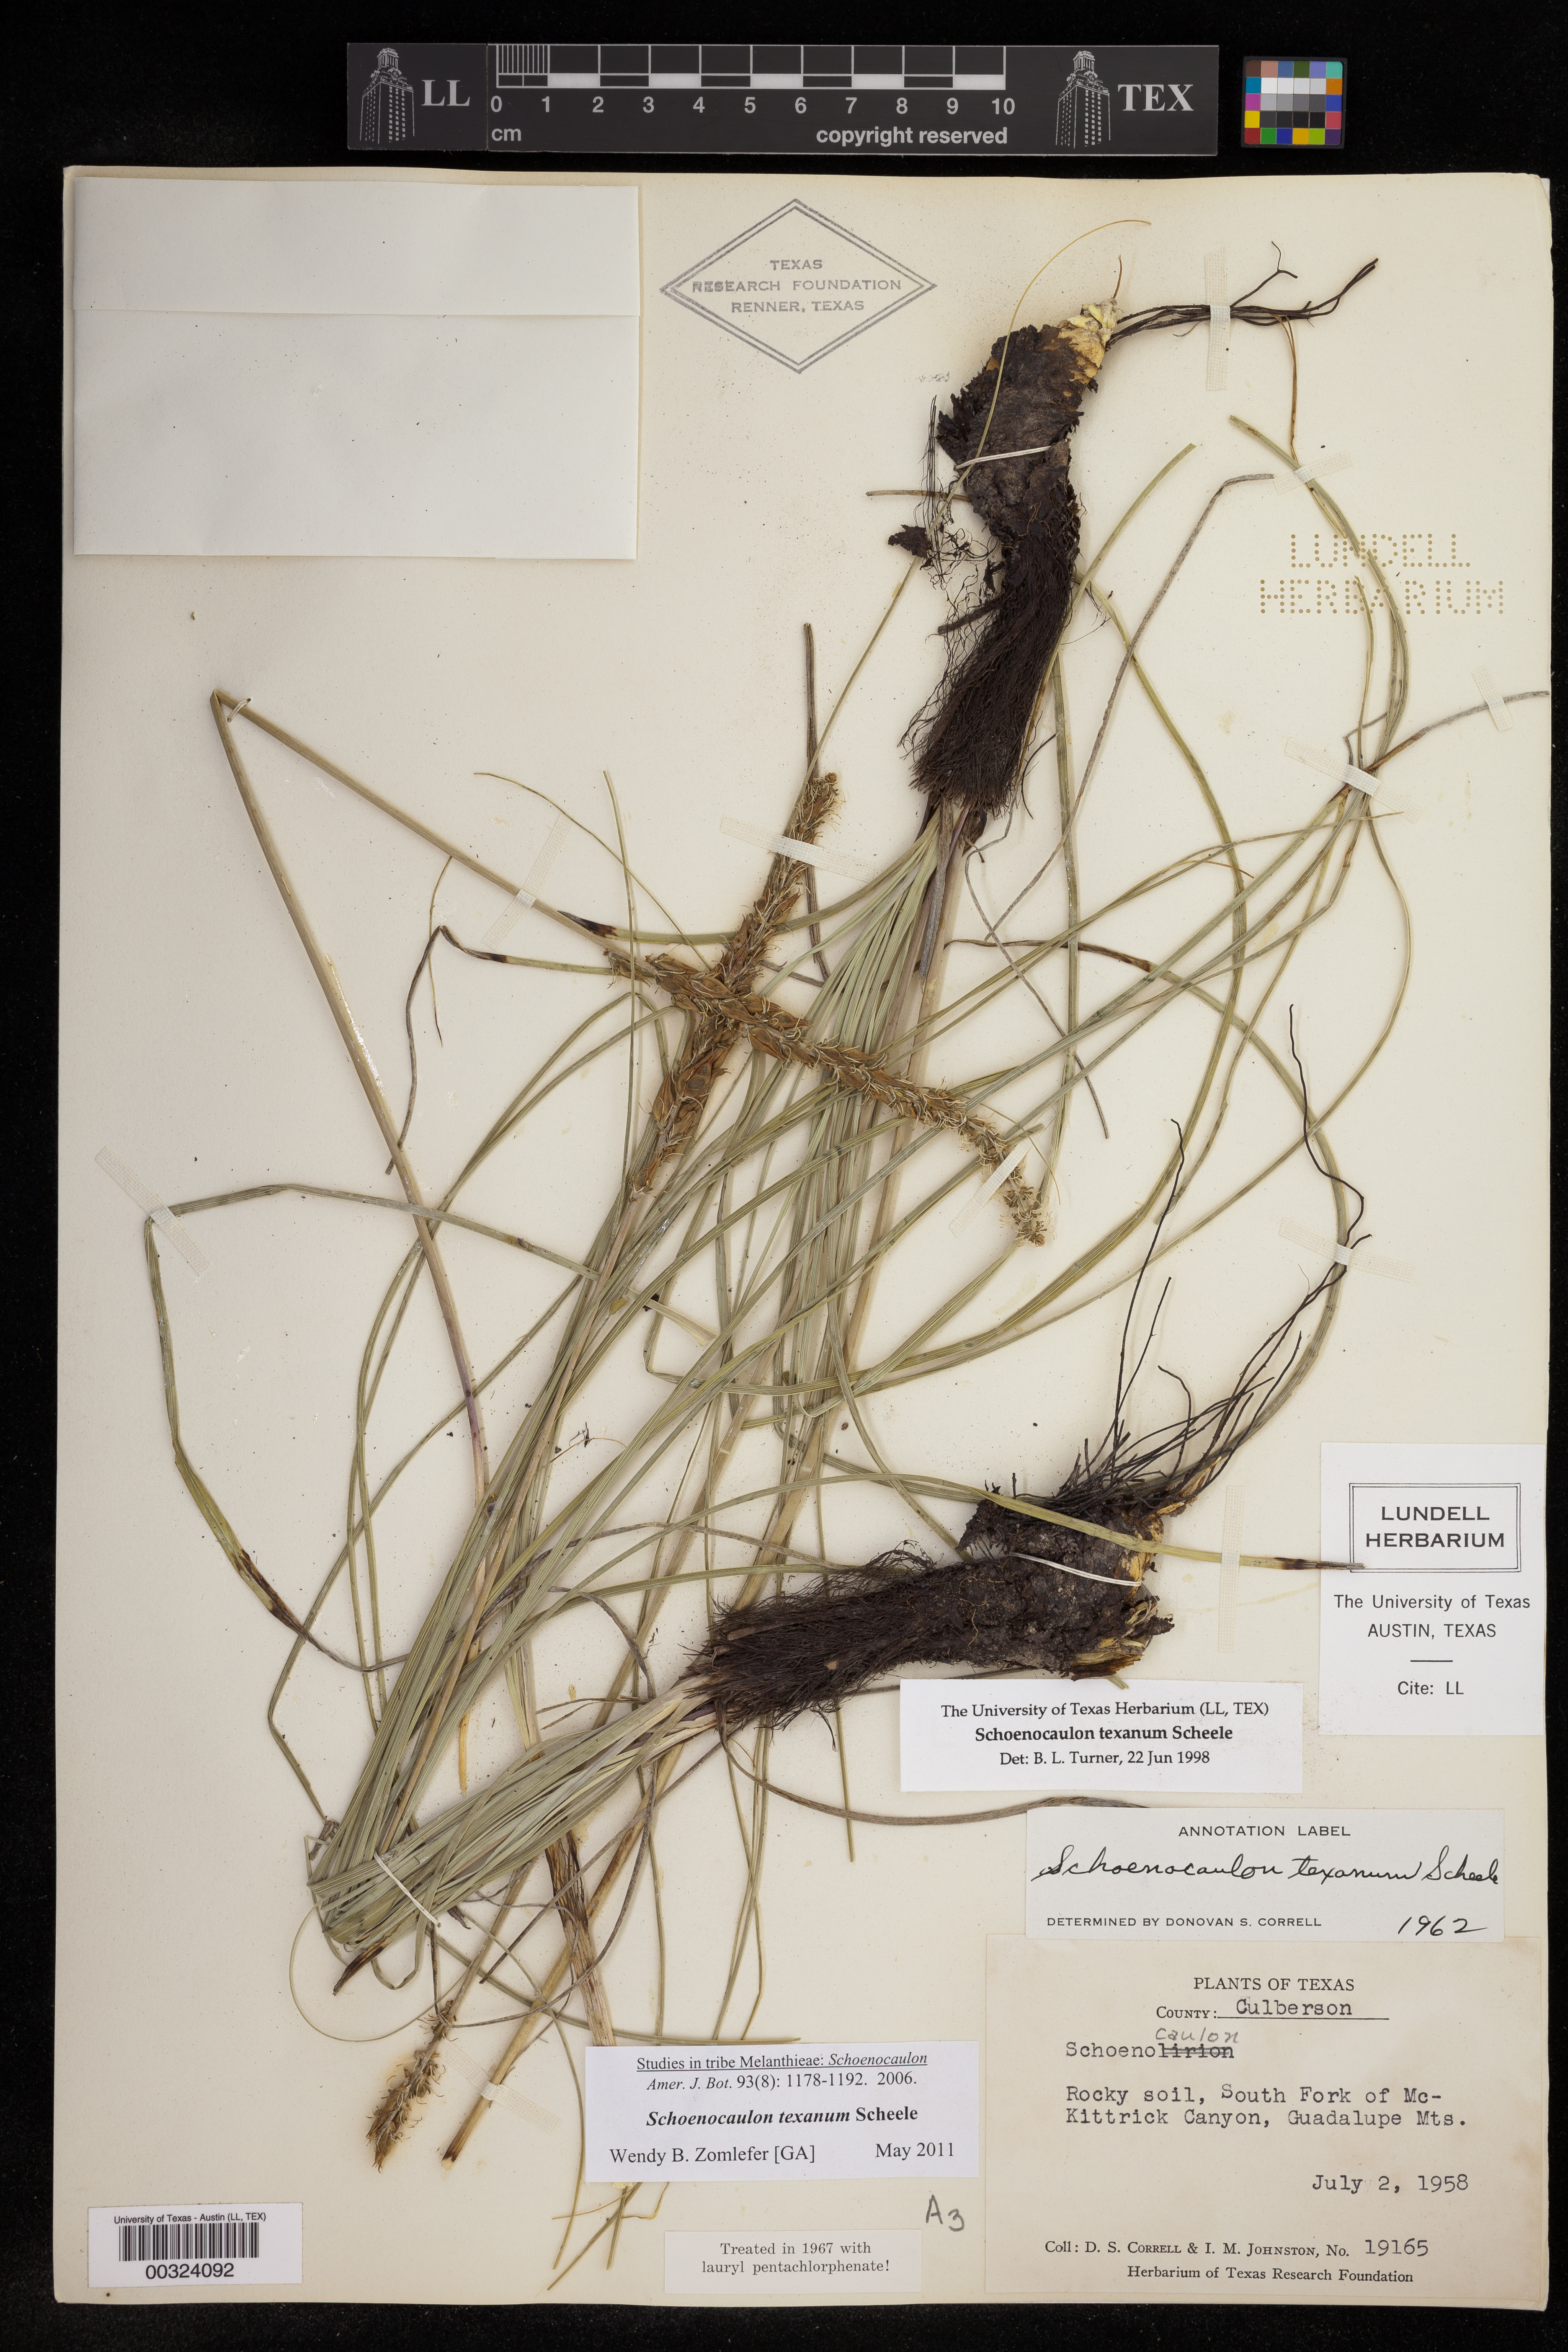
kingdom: Plantae
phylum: Tracheophyta
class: Liliopsida
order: Liliales
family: Melanthiaceae
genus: Schoenocaulon
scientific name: Schoenocaulon texanum
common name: Texas feather-shank
